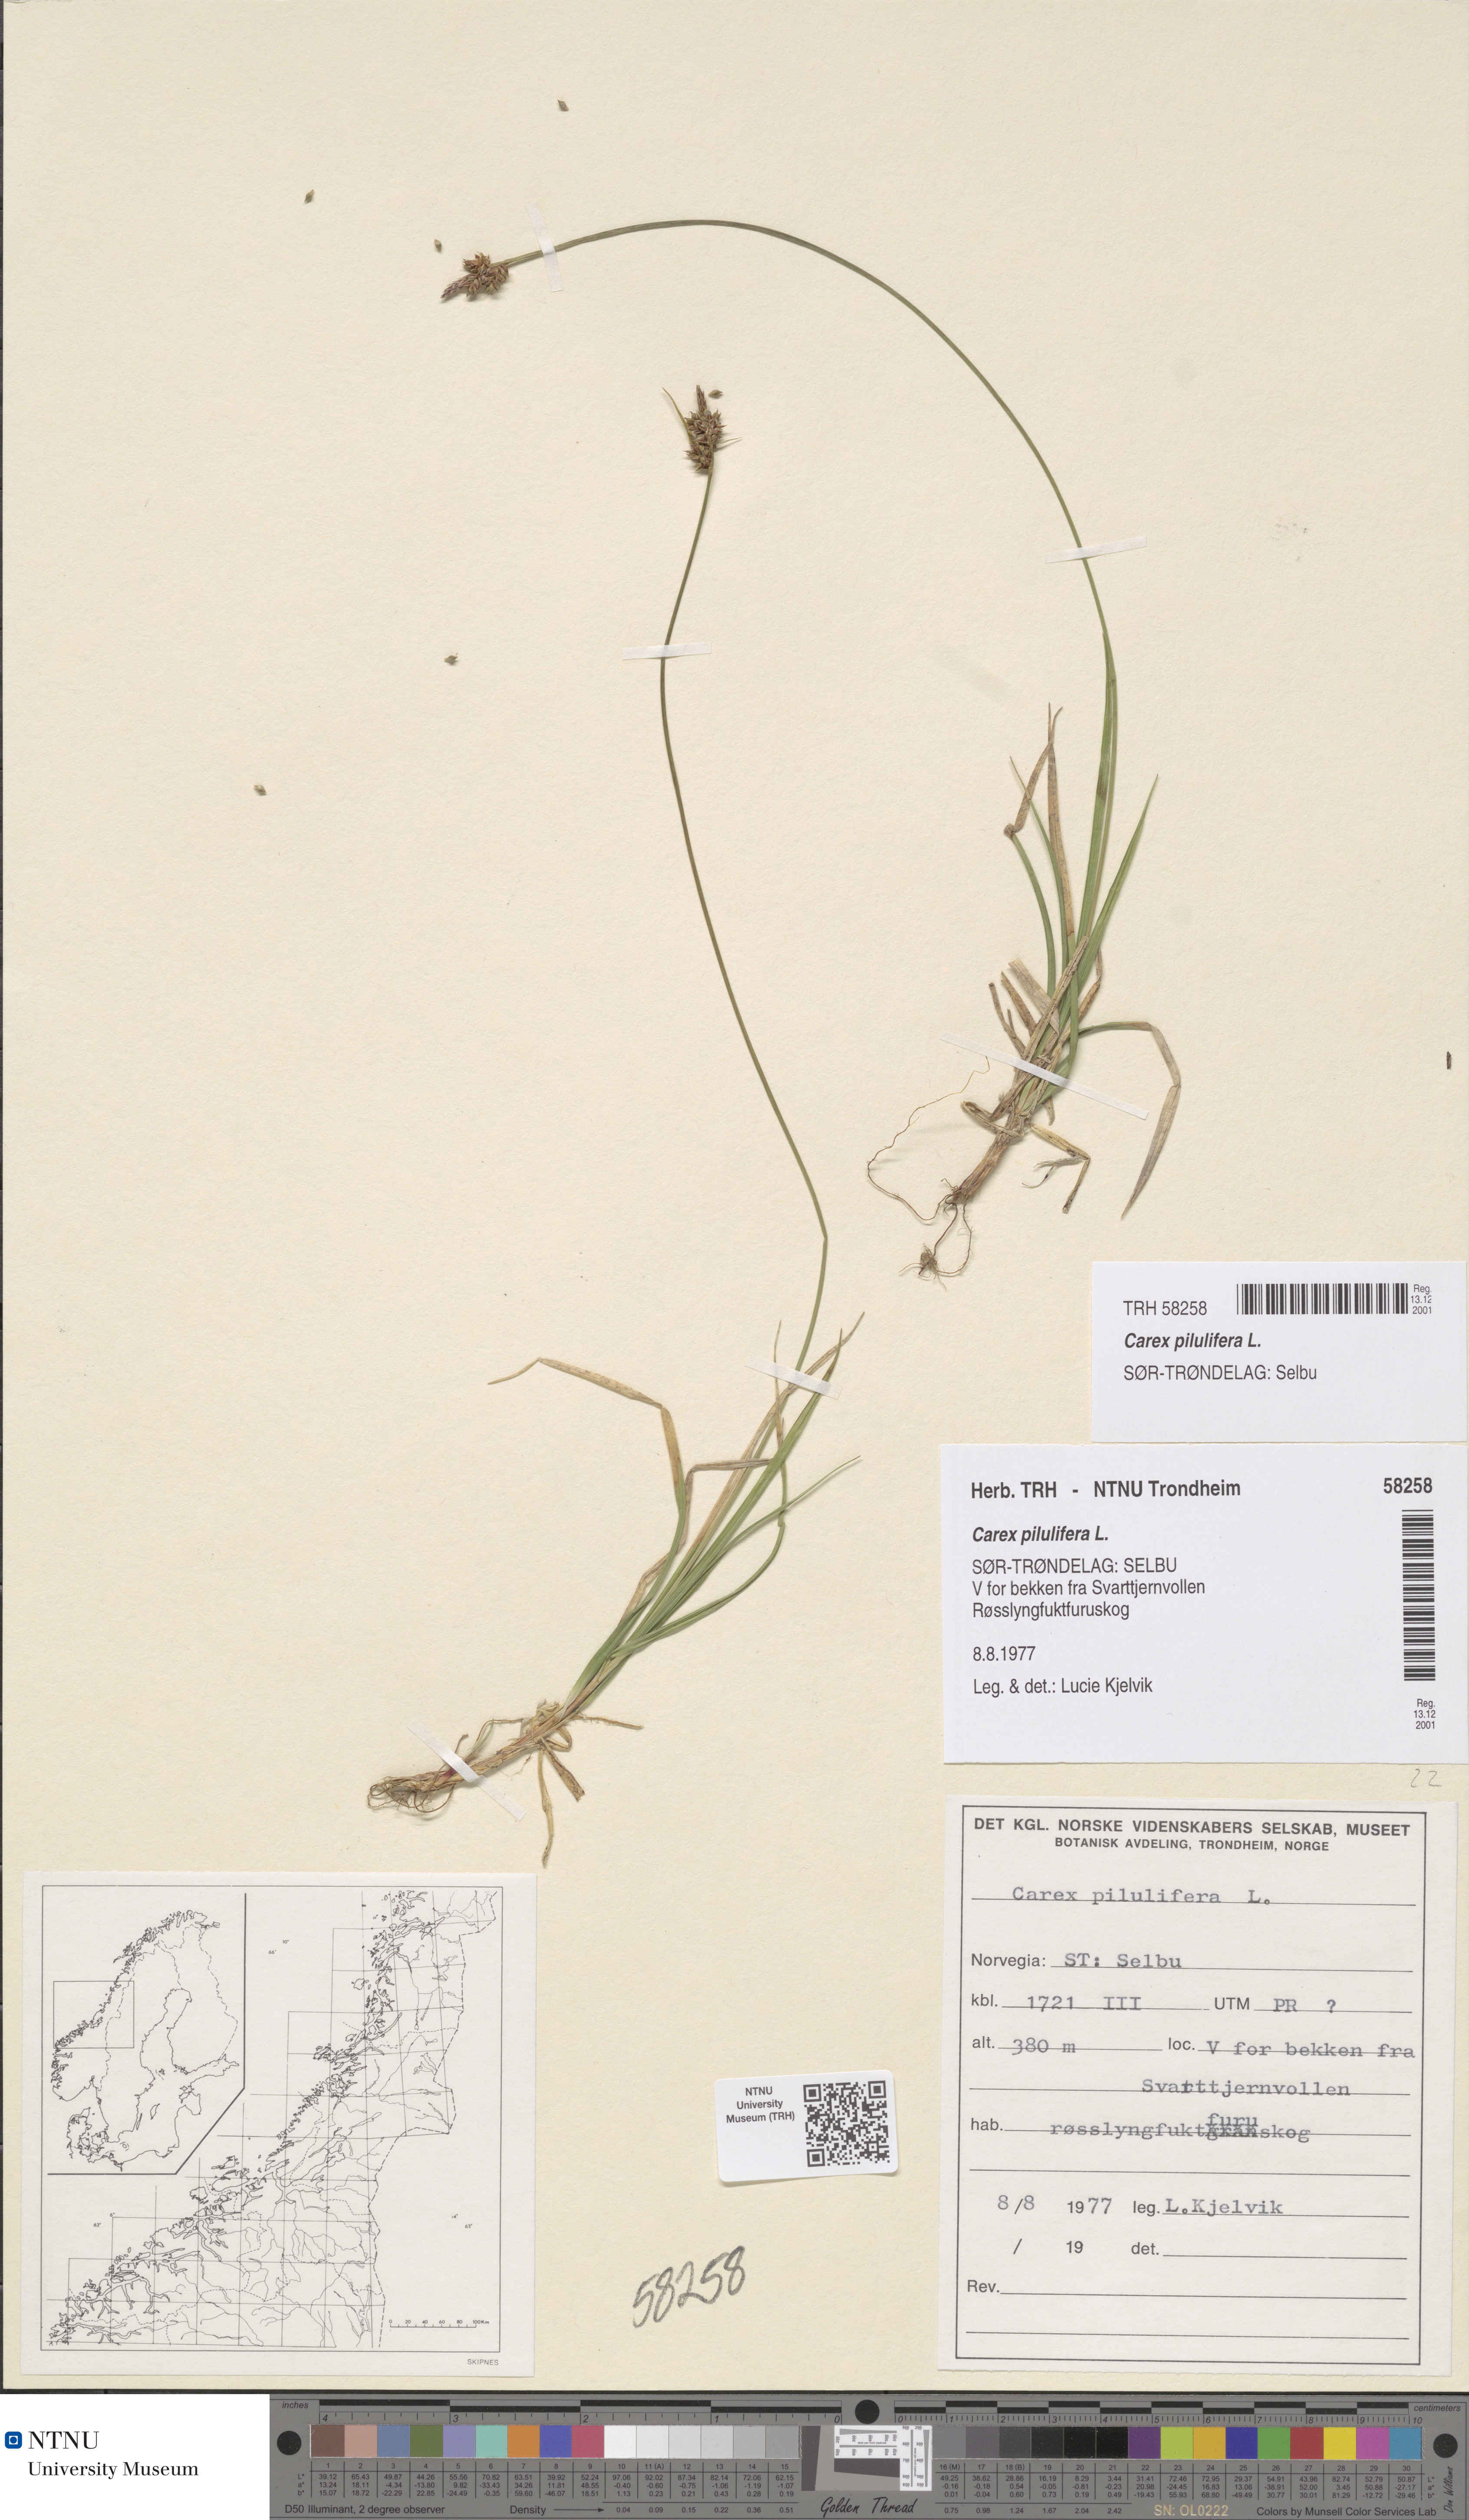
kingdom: Plantae
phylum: Tracheophyta
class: Liliopsida
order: Poales
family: Cyperaceae
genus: Carex
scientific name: Carex pilulifera
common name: Pill sedge
